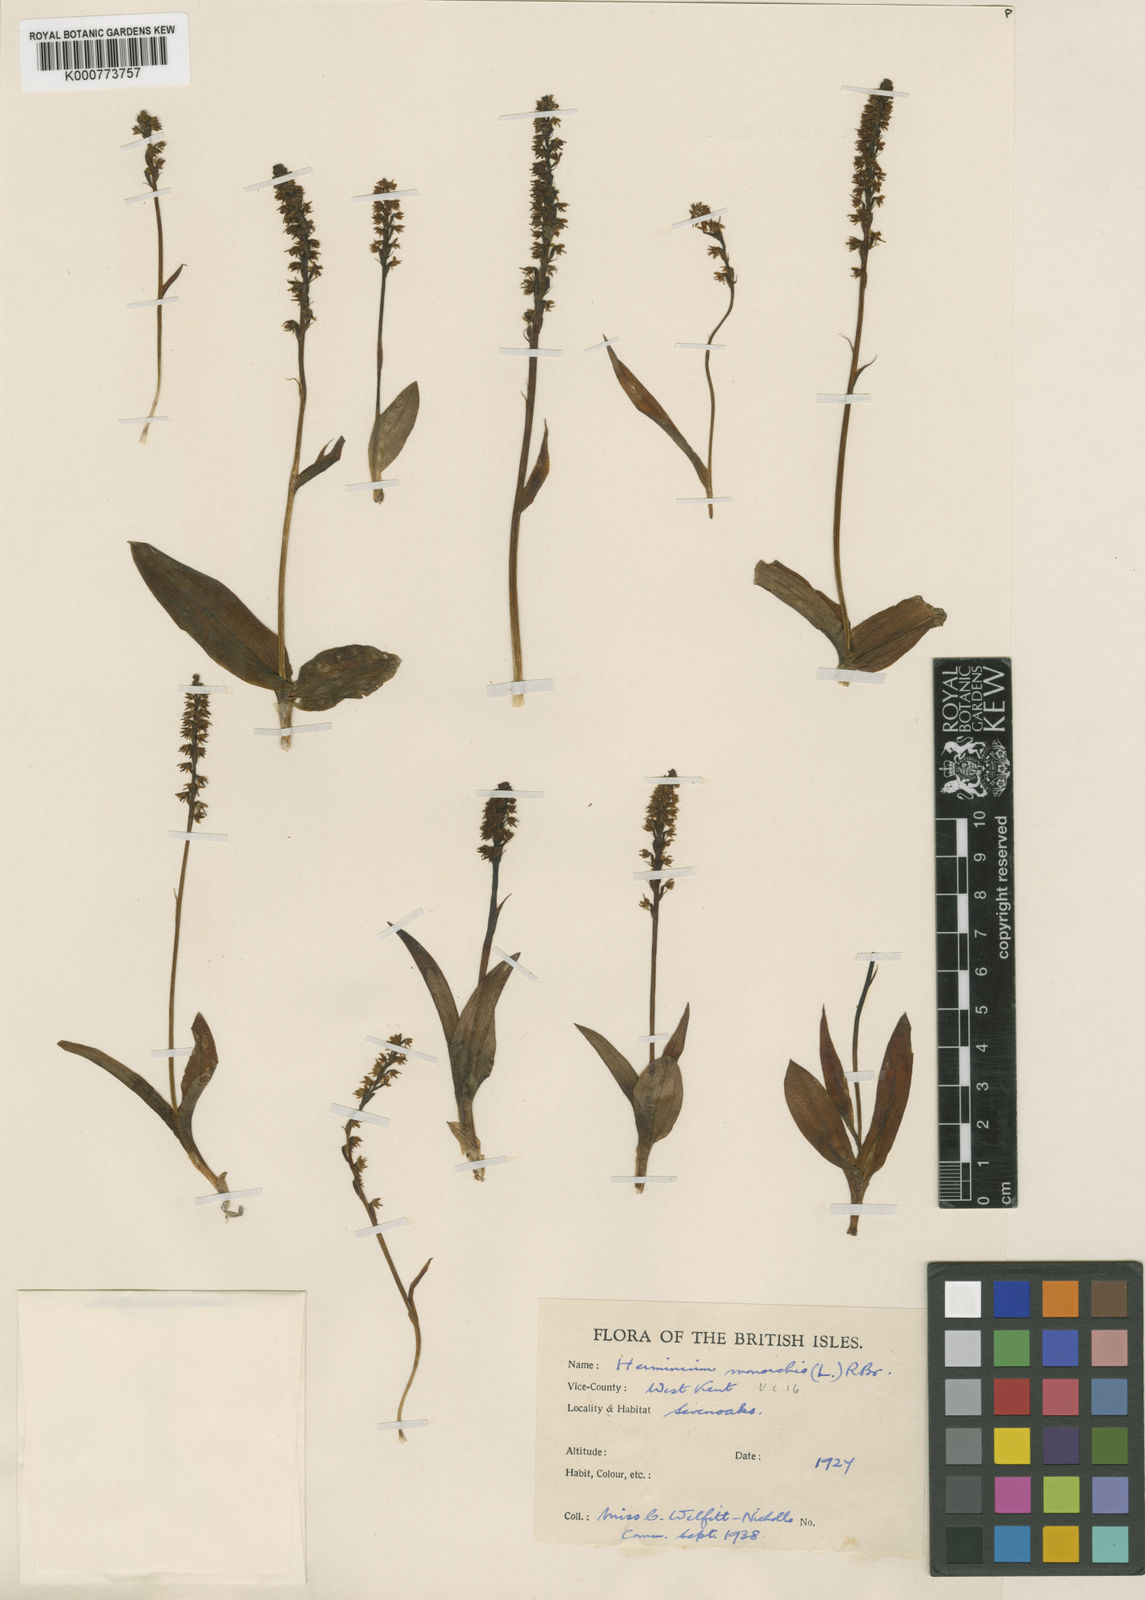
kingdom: Plantae
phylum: Tracheophyta
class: Liliopsida
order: Asparagales
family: Orchidaceae
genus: Herminium
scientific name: Herminium monorchis
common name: Musk orchid
